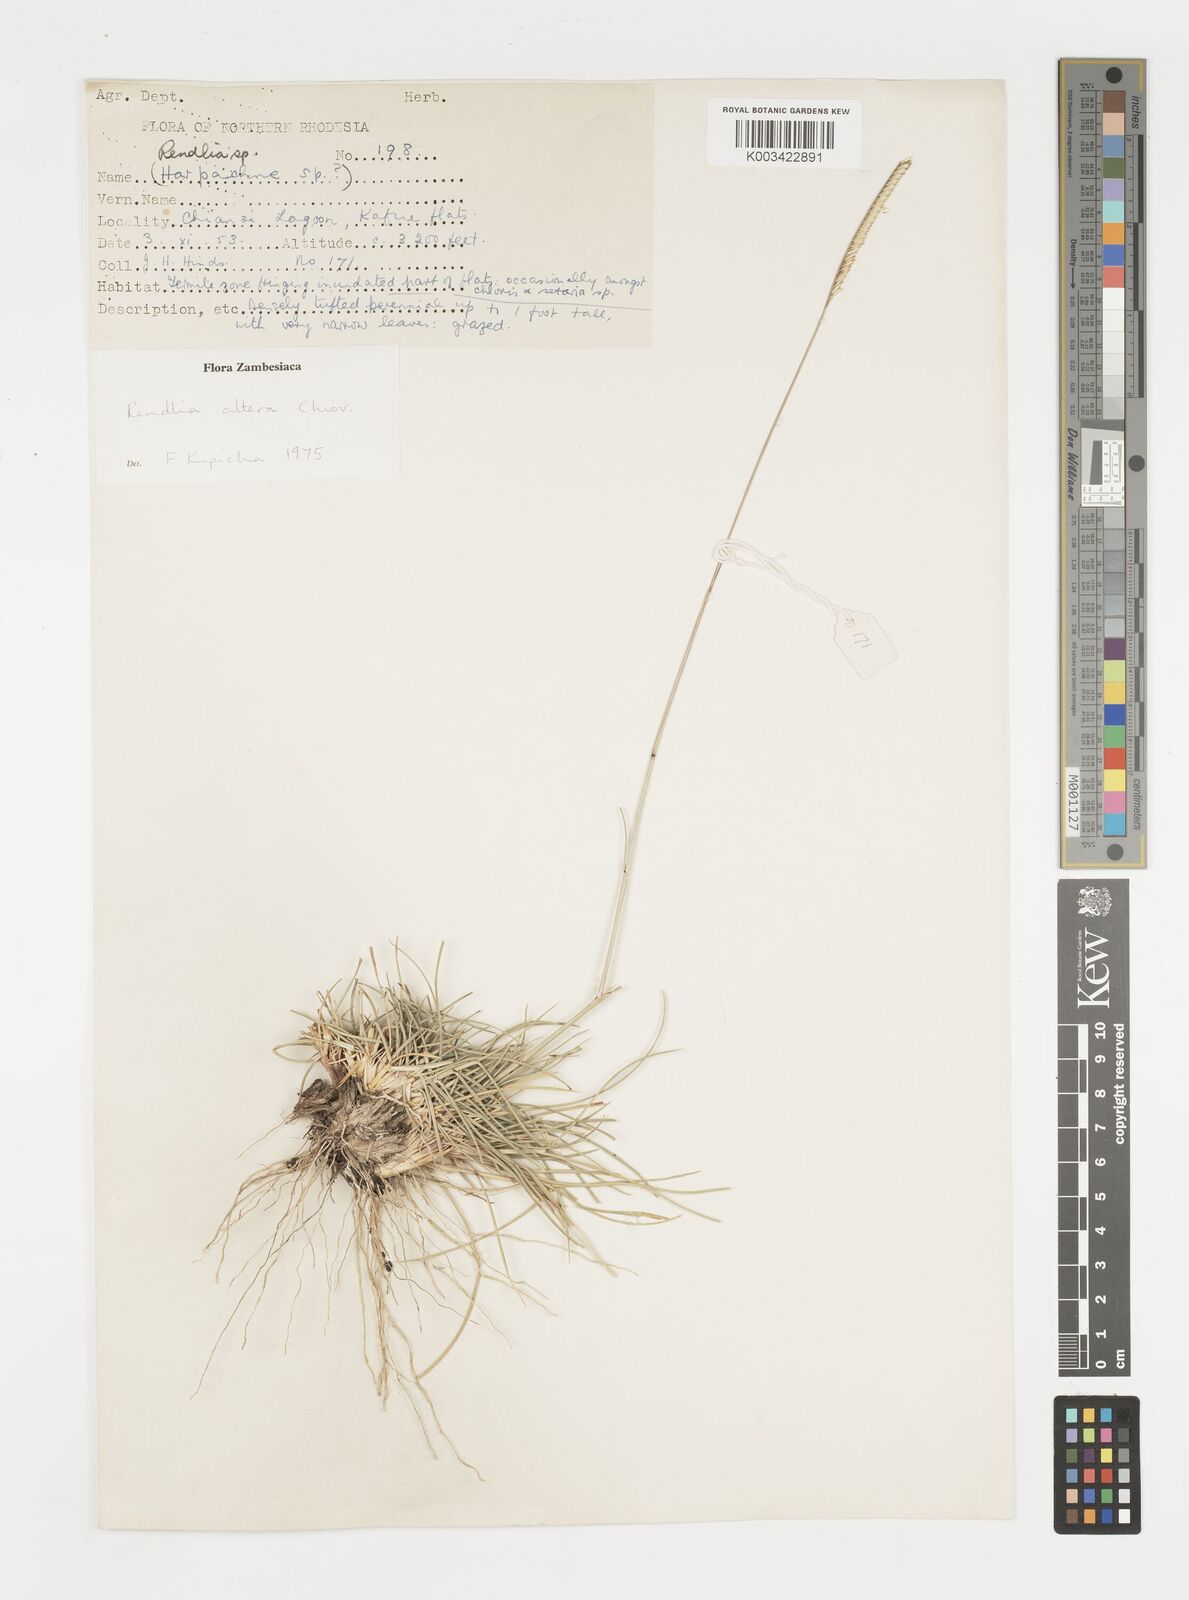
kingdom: Plantae
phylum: Tracheophyta
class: Liliopsida
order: Poales
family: Poaceae
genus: Microchloa
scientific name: Microchloa altera
